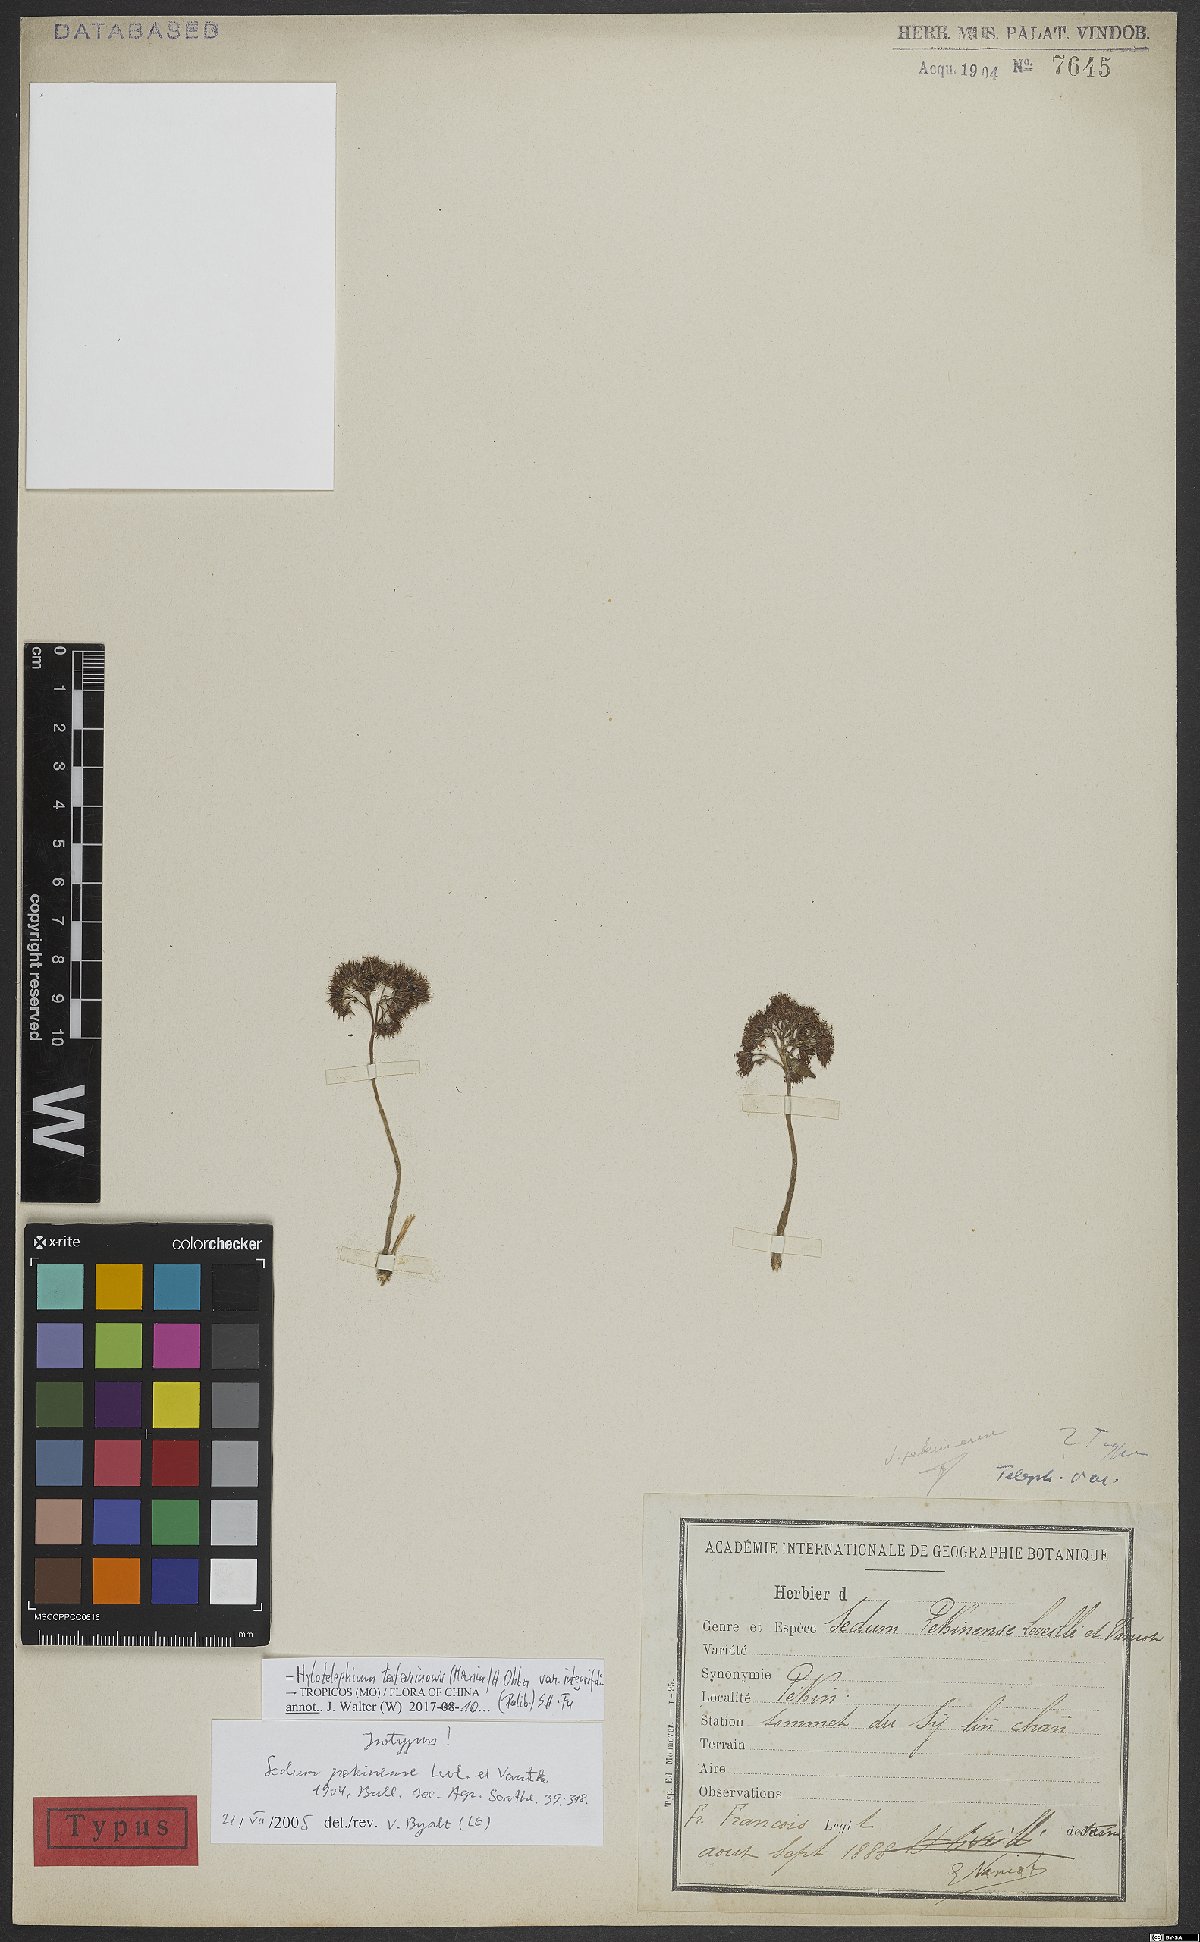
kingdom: Plantae
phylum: Tracheophyta
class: Magnoliopsida
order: Saxifragales
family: Crassulaceae
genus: Hylotelephium
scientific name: Hylotelephium tatarinowii
